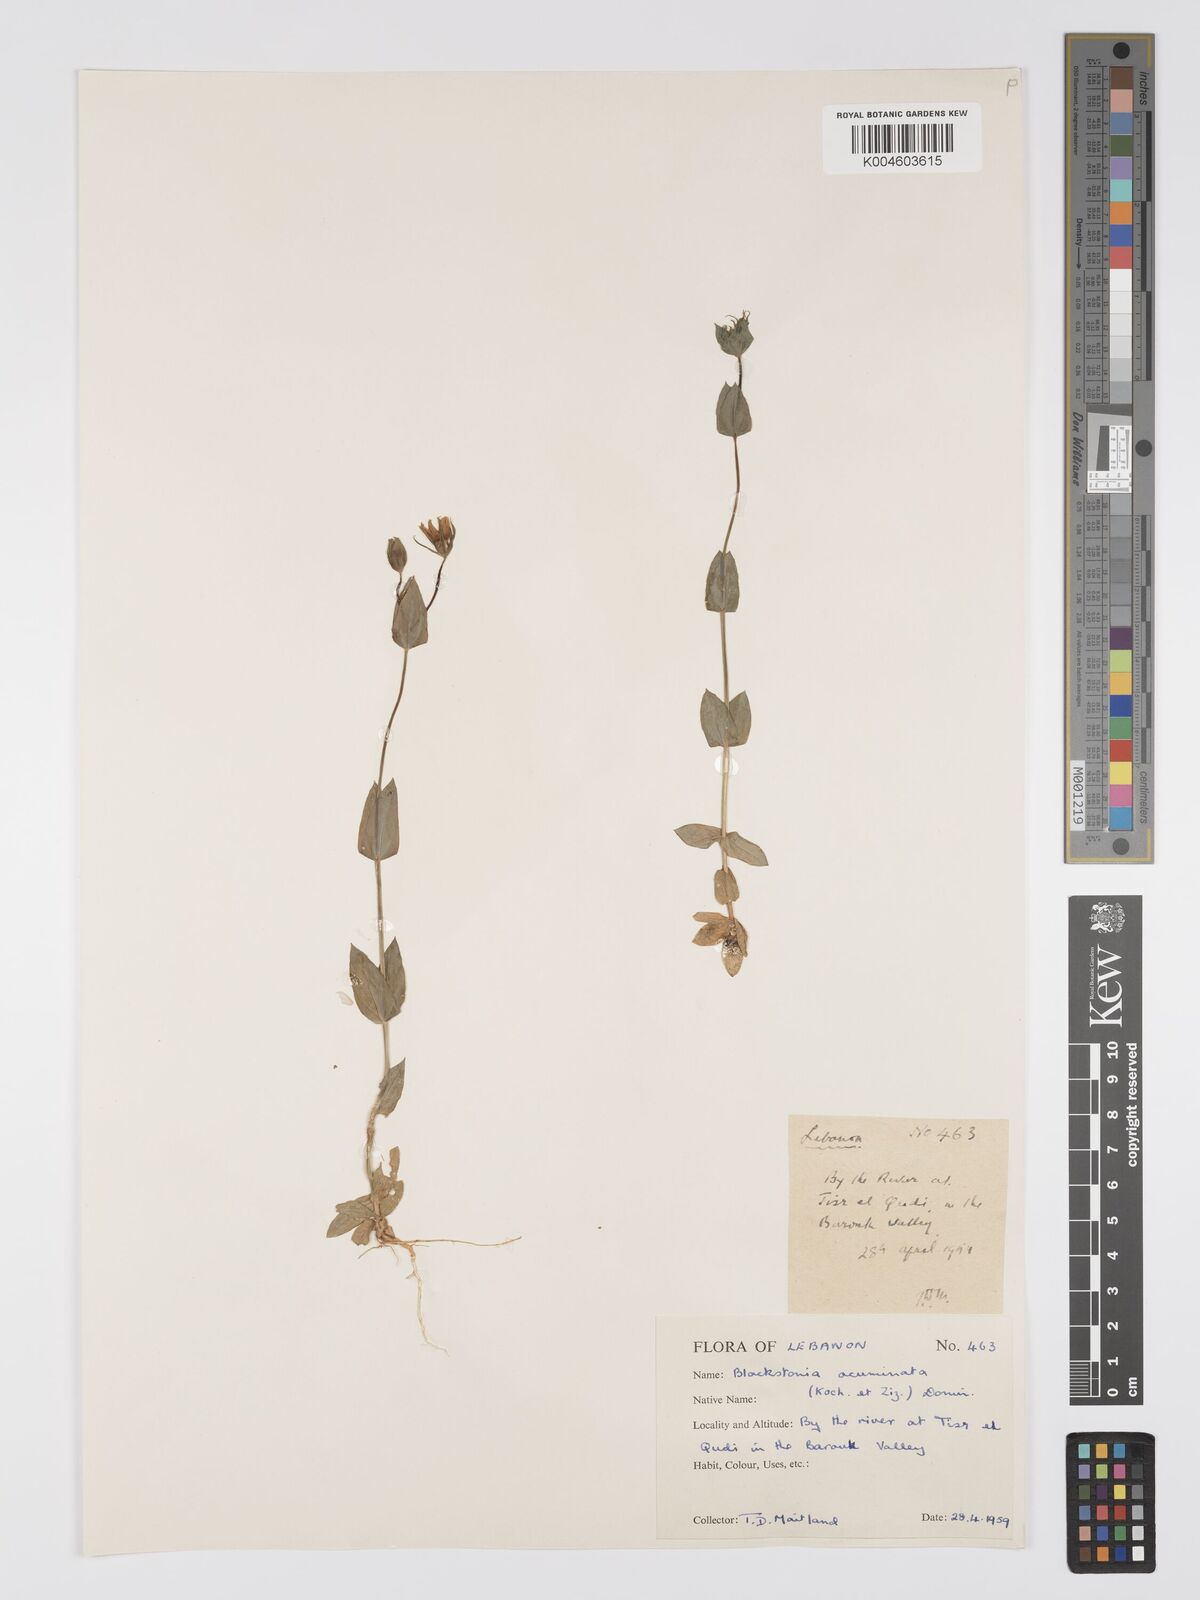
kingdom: Plantae
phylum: Tracheophyta
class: Magnoliopsida
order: Gentianales
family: Gentianaceae
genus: Blackstonia
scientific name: Blackstonia acuminata
